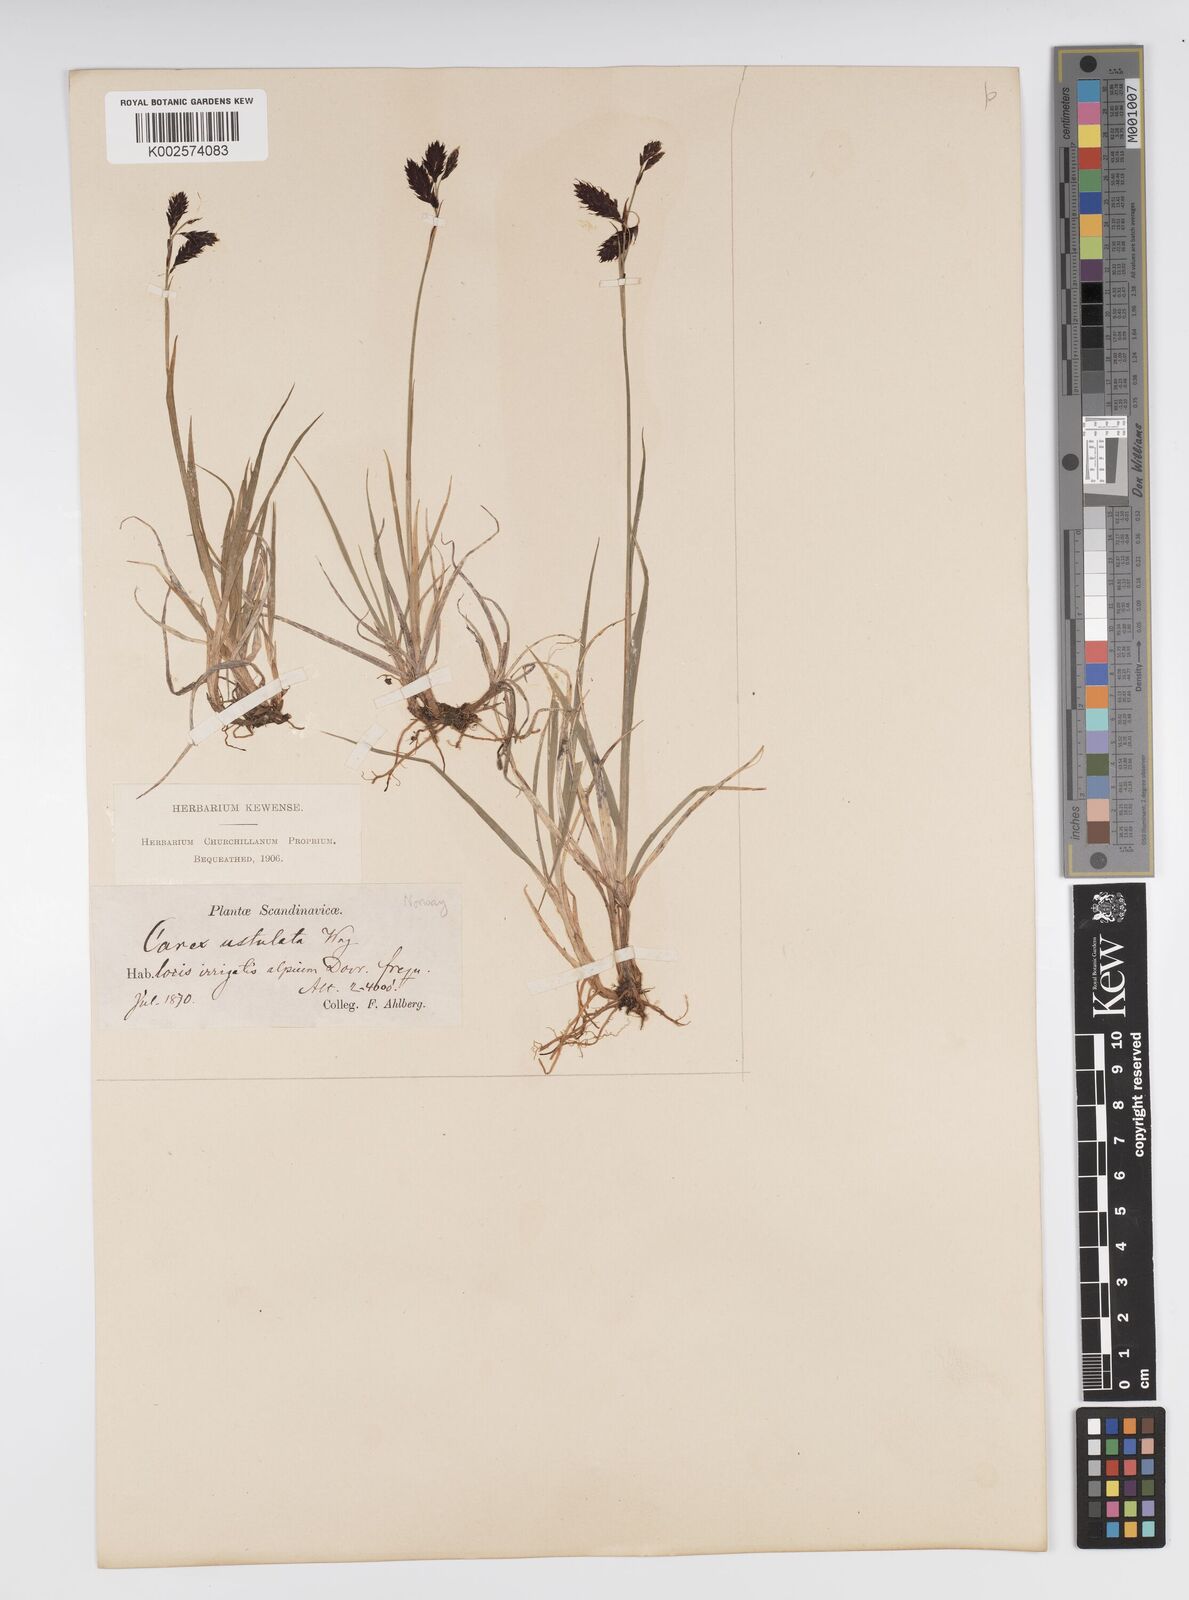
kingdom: Plantae
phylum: Tracheophyta
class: Liliopsida
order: Poales
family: Cyperaceae
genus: Carex
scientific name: Carex atrofusca
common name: Scorched alpine-sedge
